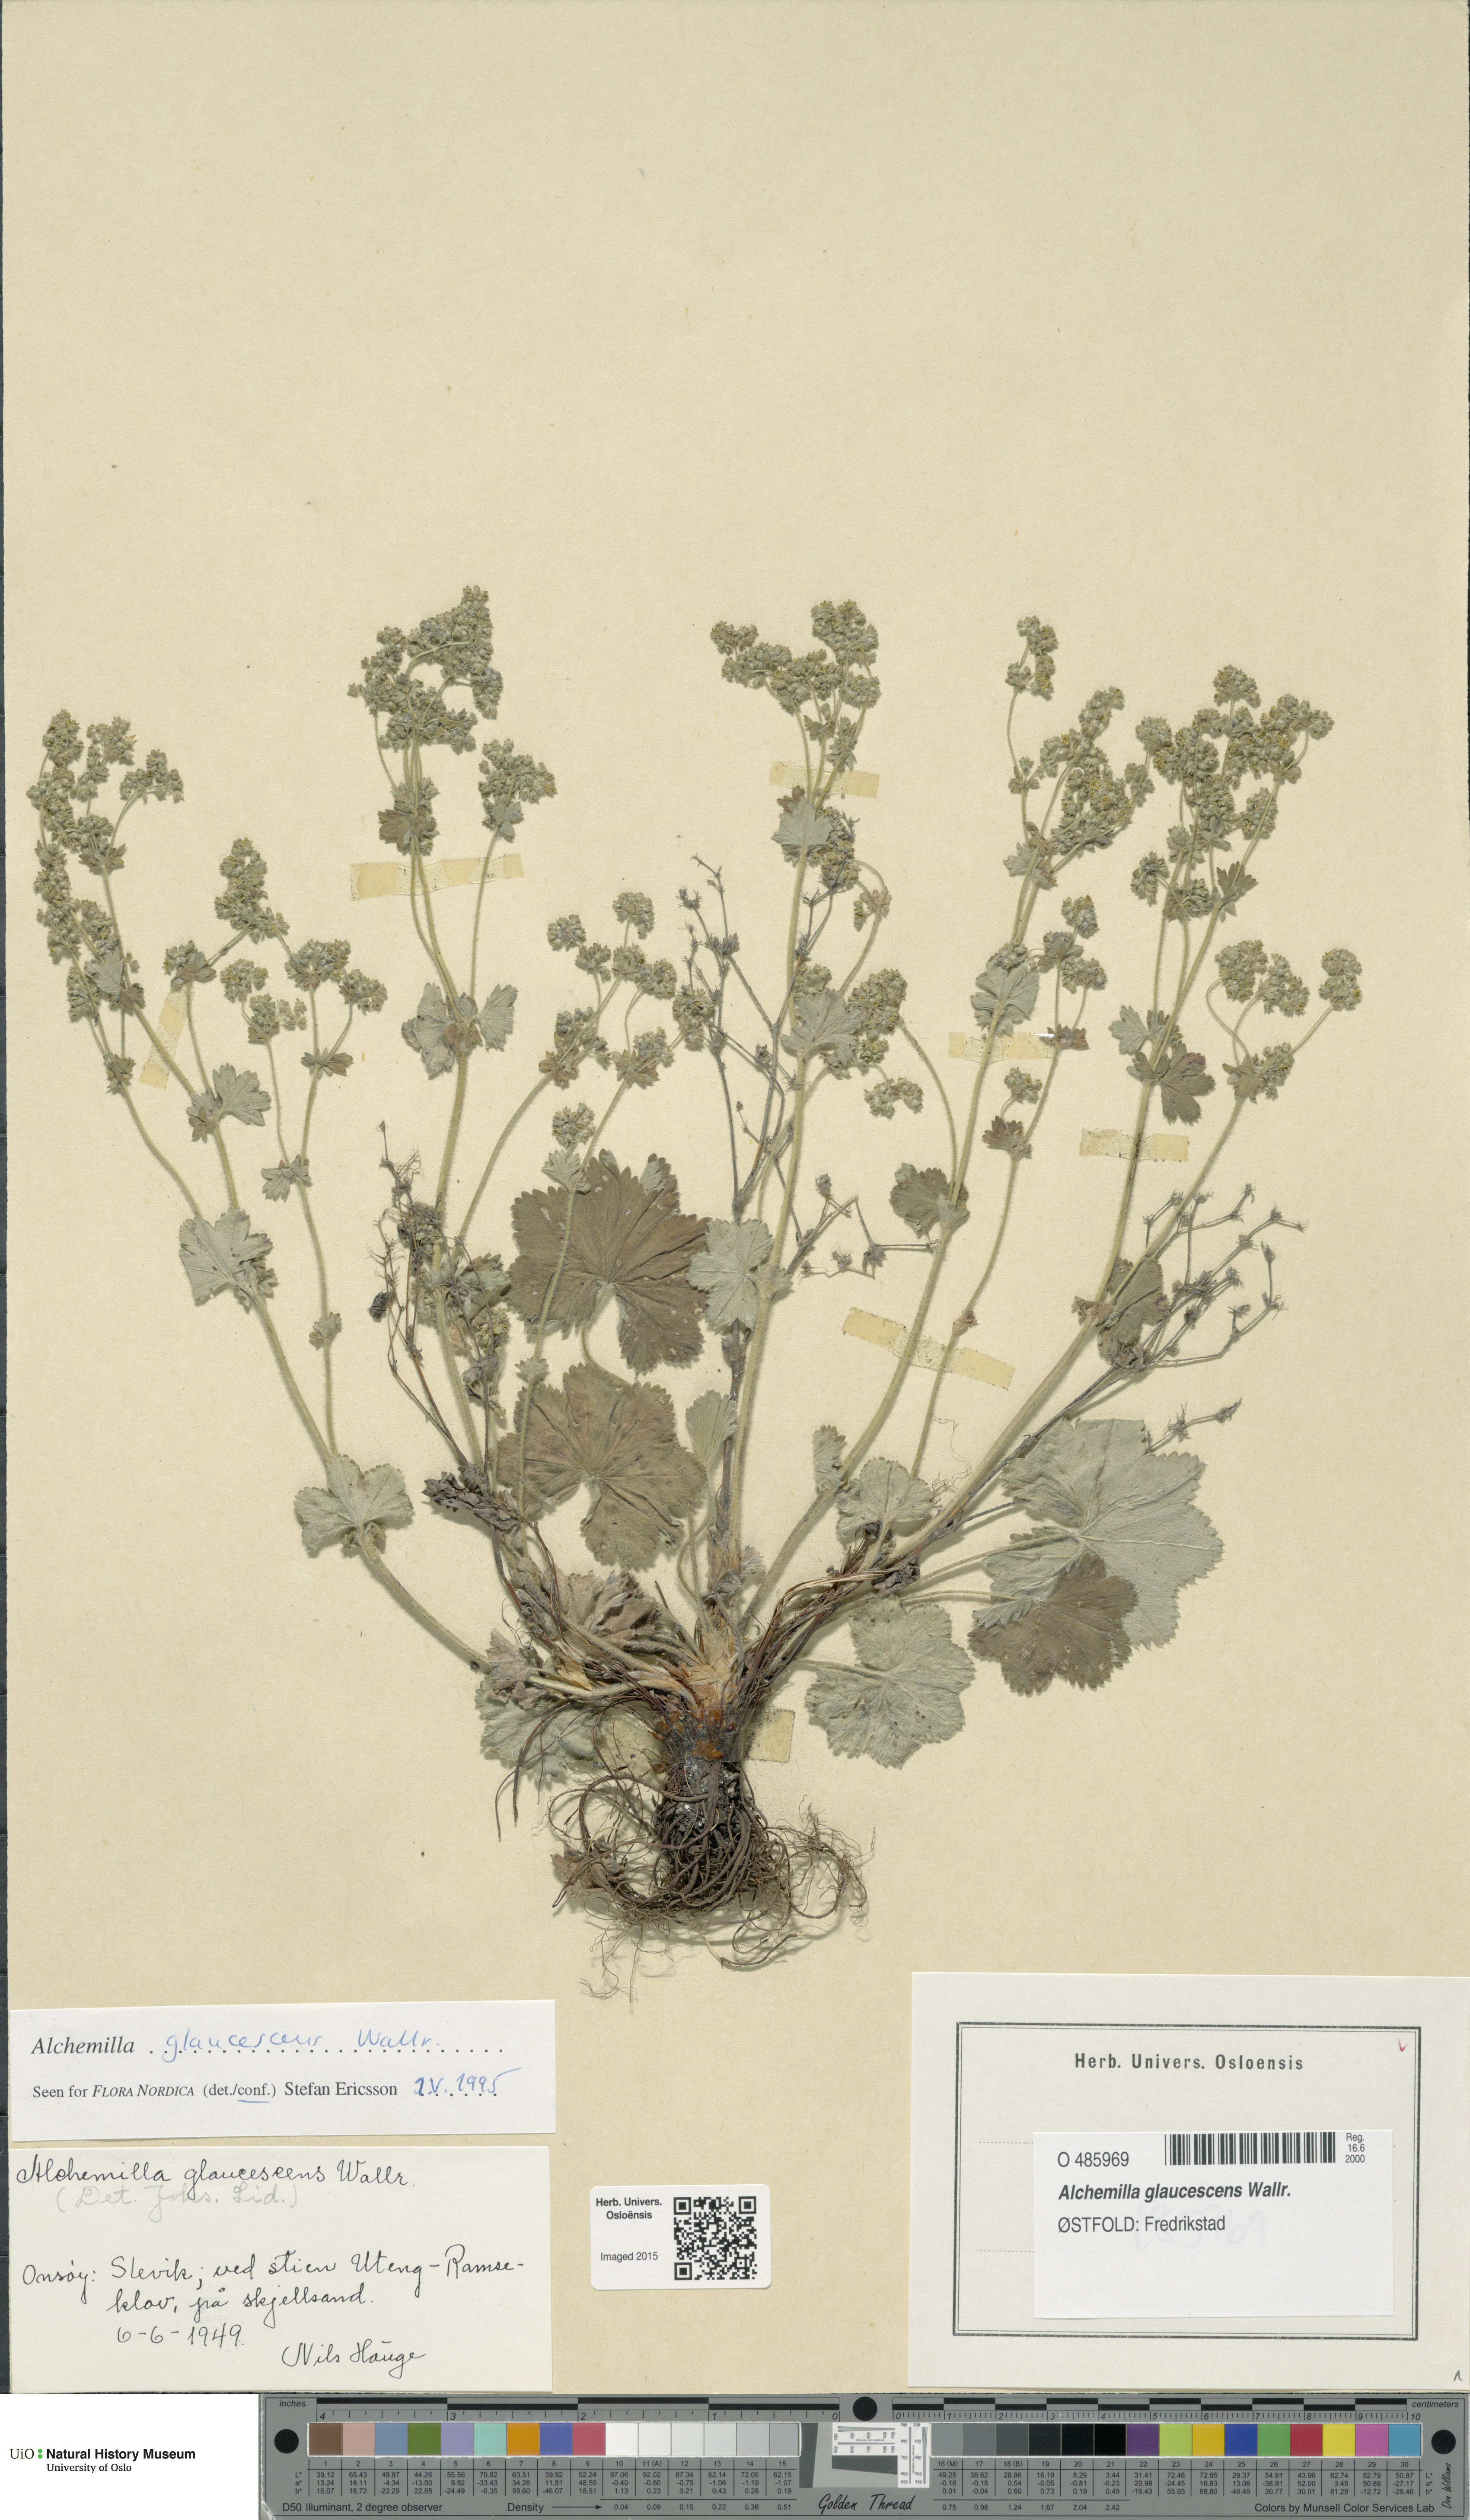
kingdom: Plantae
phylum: Tracheophyta
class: Magnoliopsida
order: Rosales
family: Rosaceae
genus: Alchemilla
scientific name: Alchemilla glaucescens
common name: Silky lady's mantle
